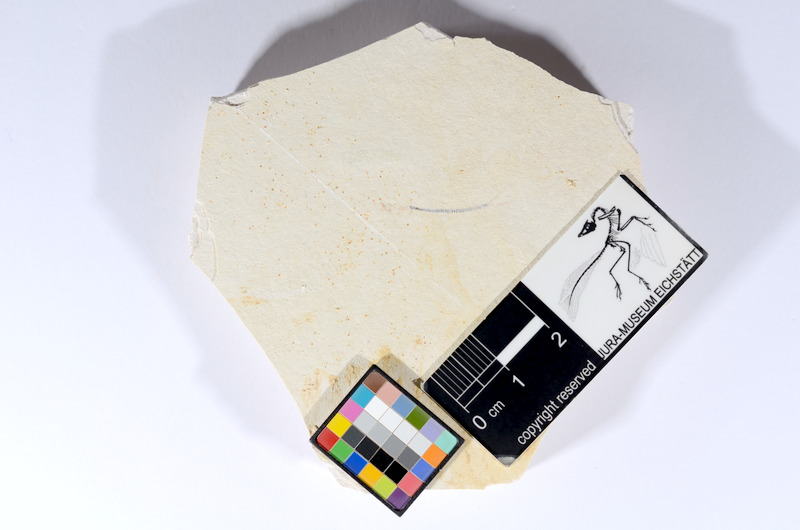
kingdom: Animalia
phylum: Chordata
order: Salmoniformes
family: Orthogonikleithridae
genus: Orthogonikleithrus
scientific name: Orthogonikleithrus hoelli
